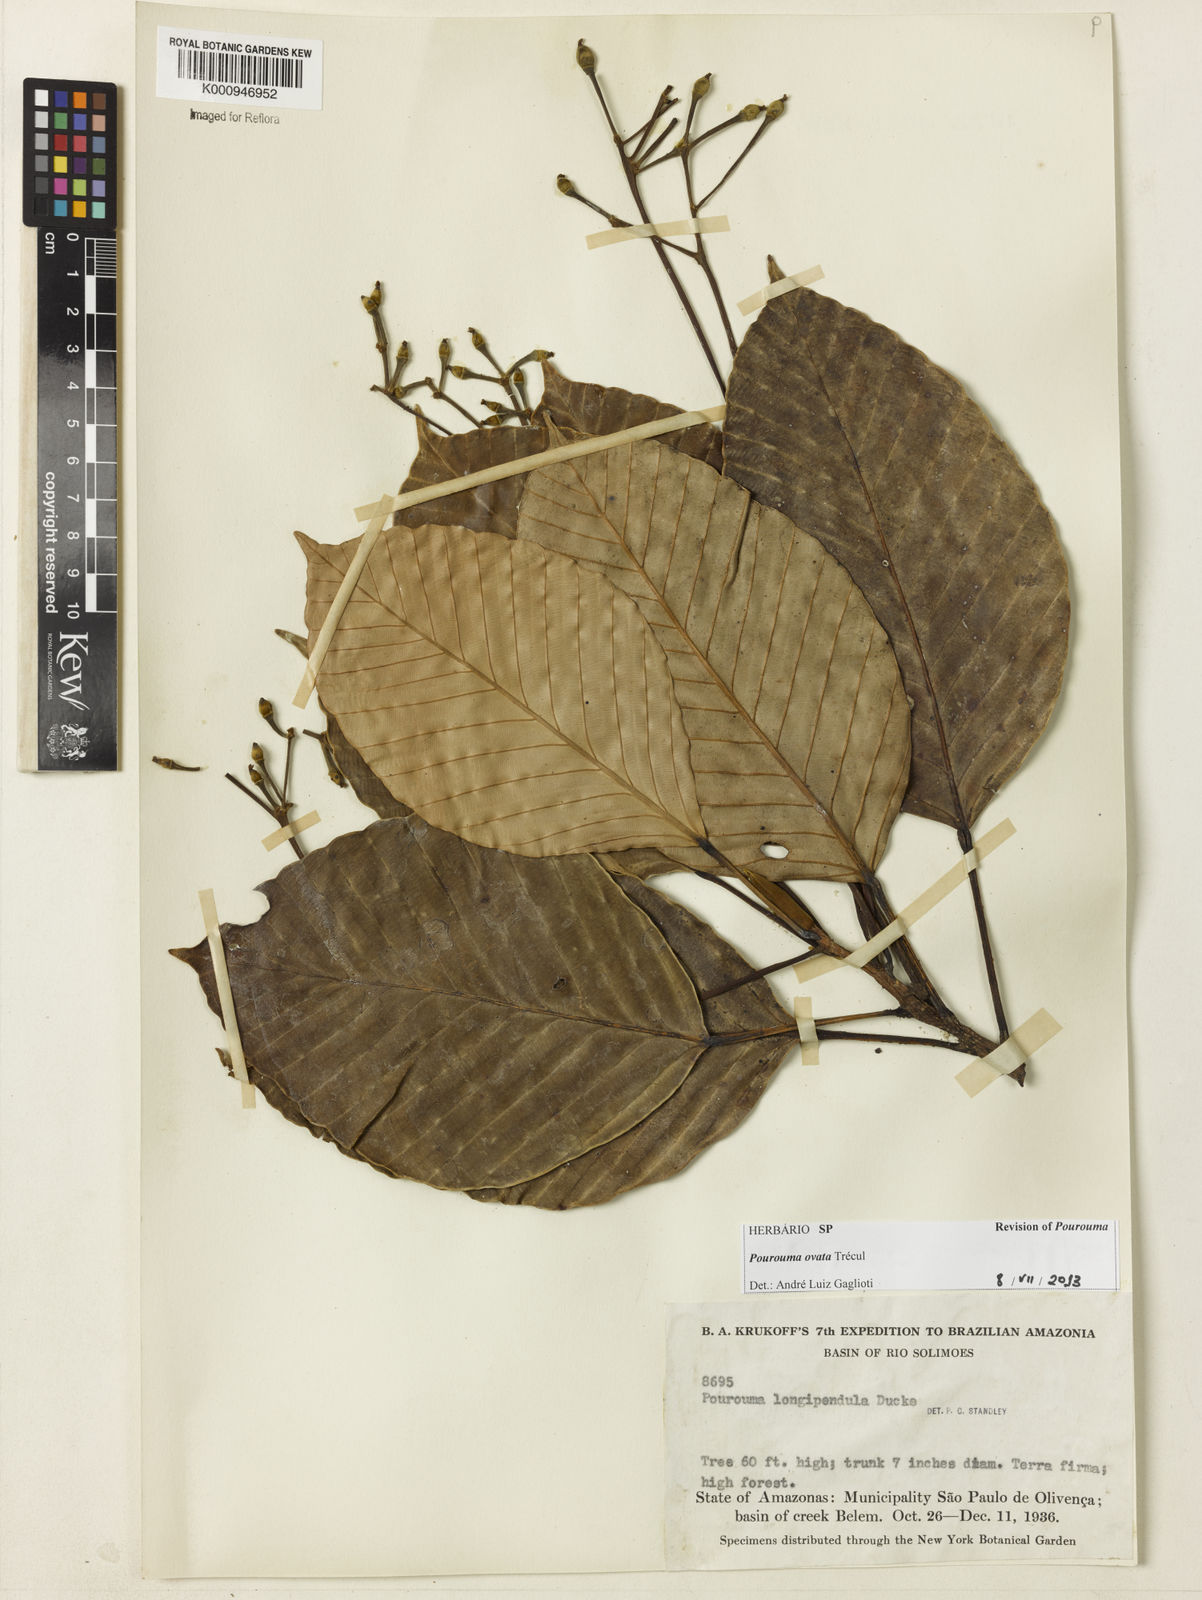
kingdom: Plantae
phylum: Tracheophyta
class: Magnoliopsida
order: Rosales
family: Urticaceae
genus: Pourouma
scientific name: Pourouma
